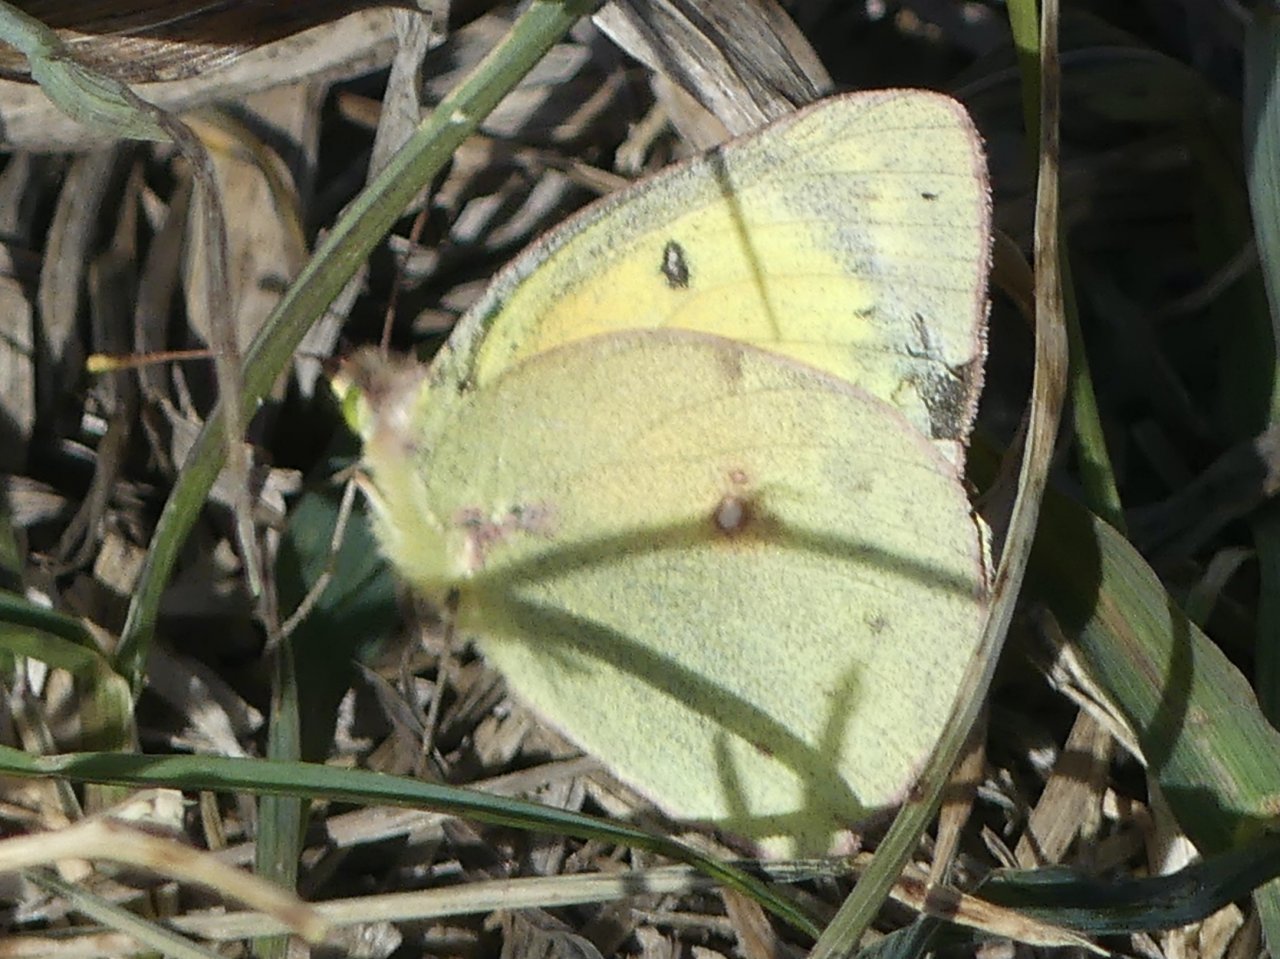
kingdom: Animalia
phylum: Arthropoda
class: Insecta
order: Lepidoptera
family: Pieridae
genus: Colias
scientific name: Colias philodice
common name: Clouded Sulphur
